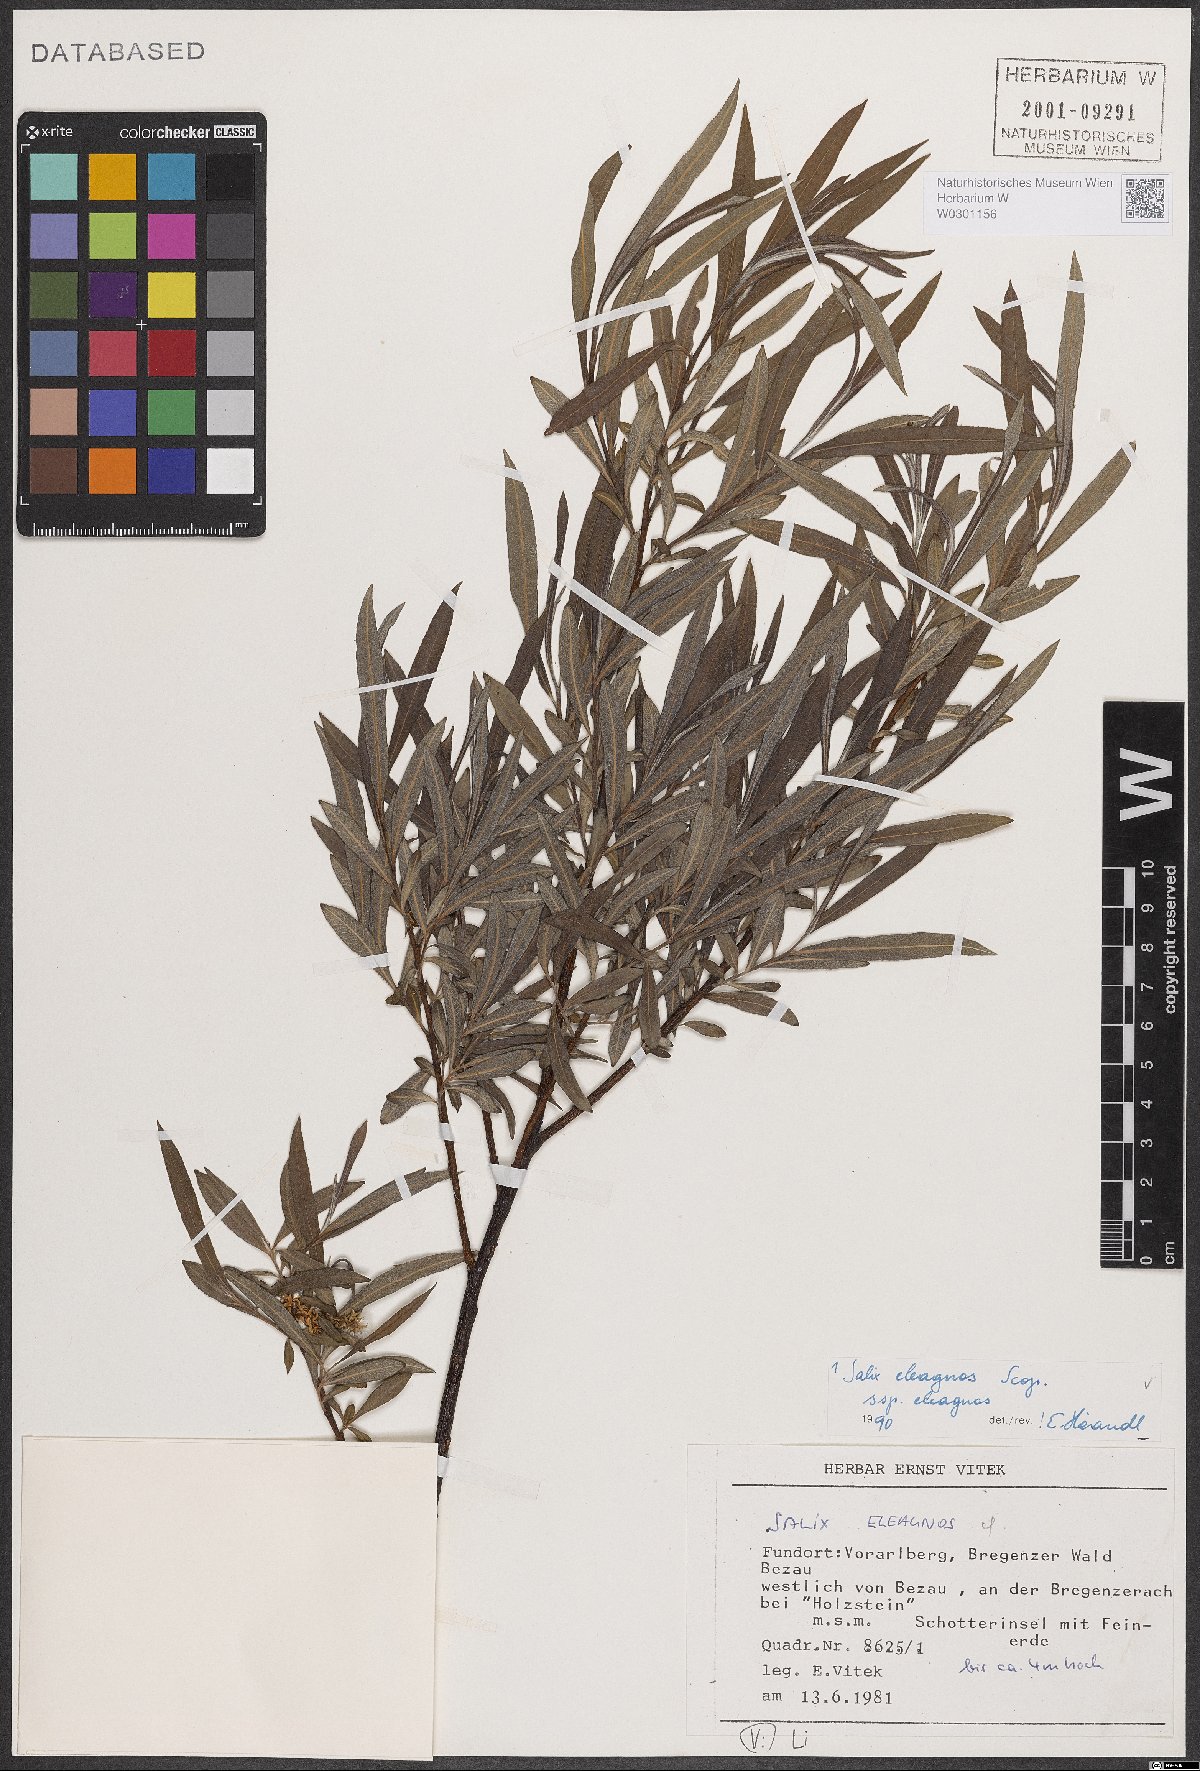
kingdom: Plantae
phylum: Tracheophyta
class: Magnoliopsida
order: Malpighiales
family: Salicaceae
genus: Salix
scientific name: Salix eleagnos
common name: Elaeagnus willow
